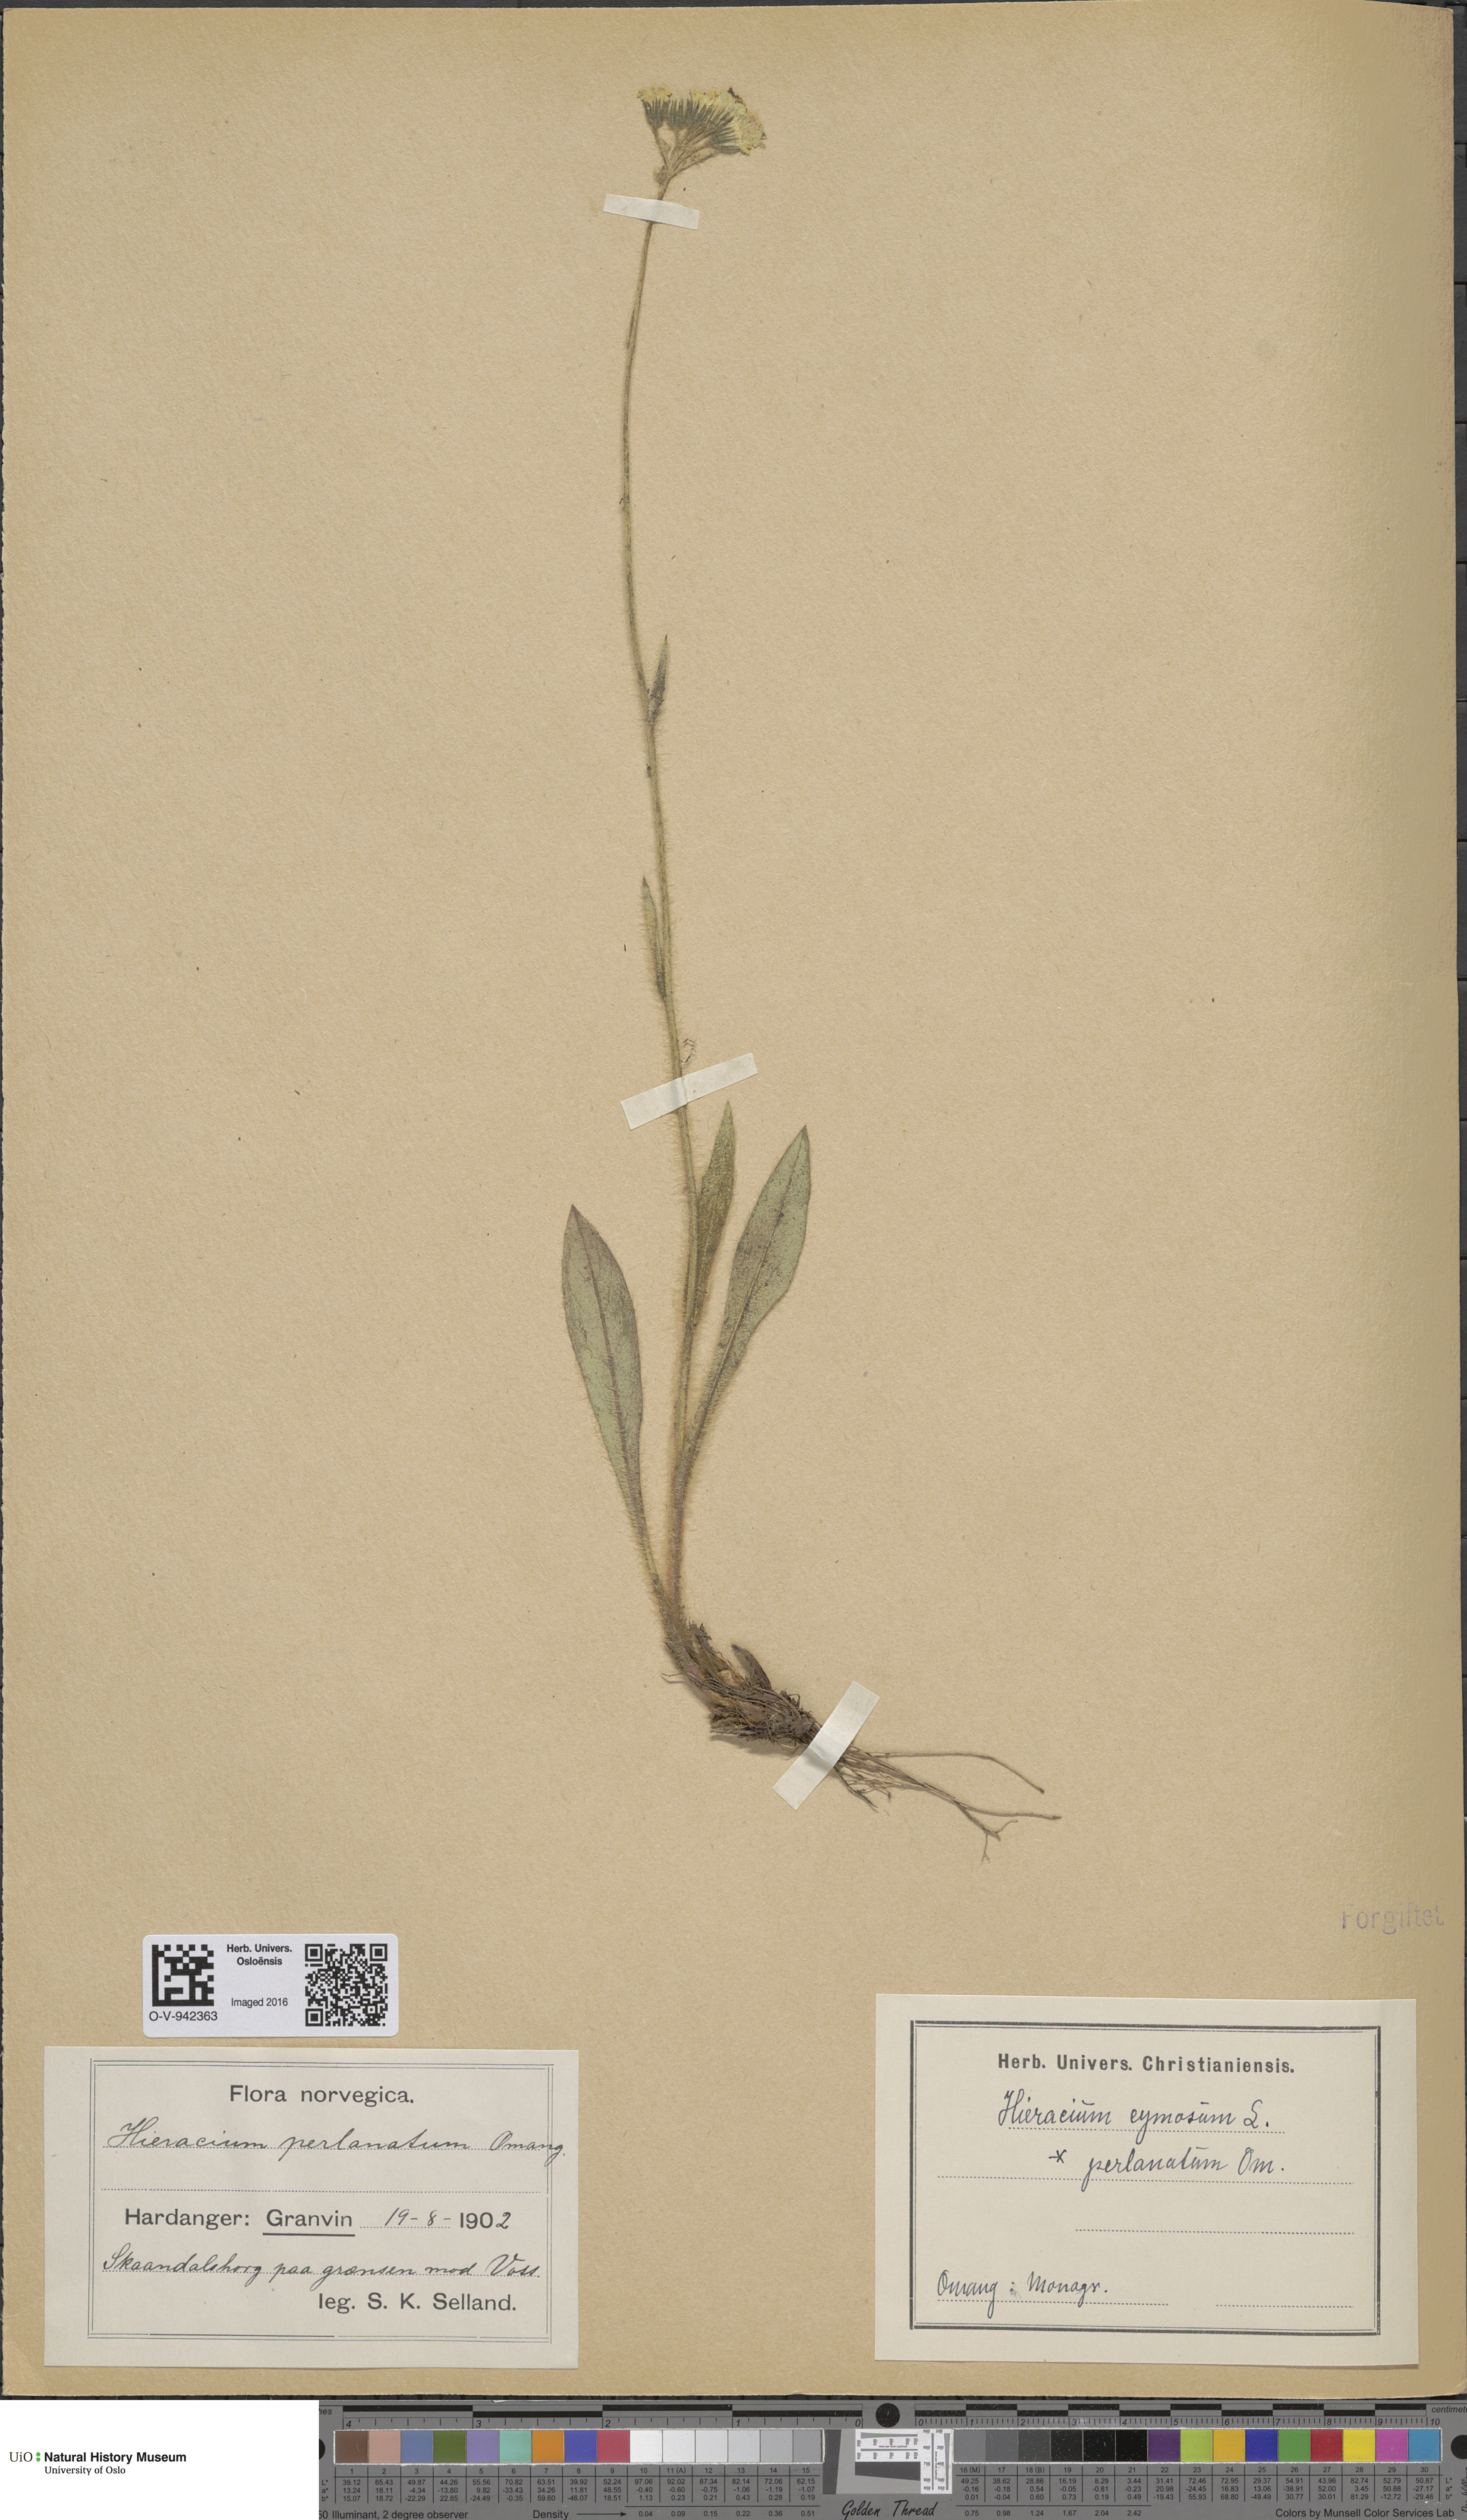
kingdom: Plantae
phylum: Tracheophyta
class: Magnoliopsida
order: Asterales
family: Asteraceae
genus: Pilosella
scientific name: Pilosella cymosa
